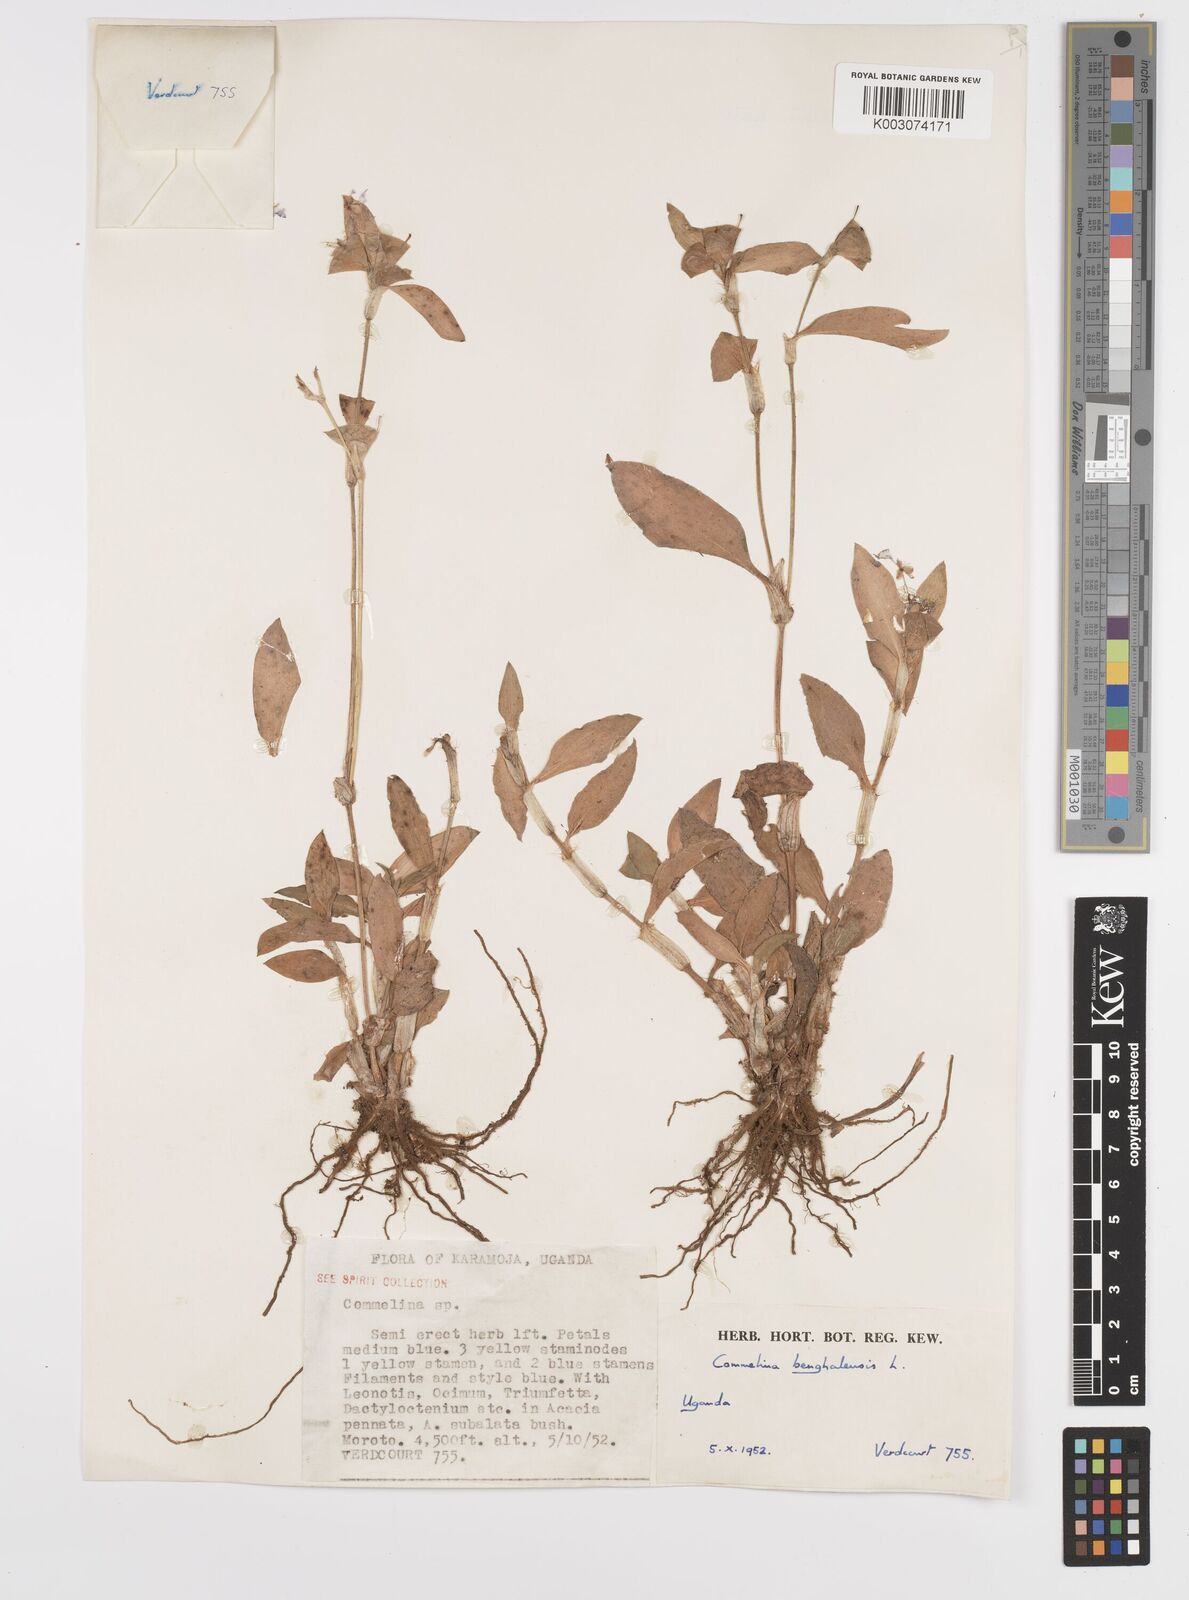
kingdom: Plantae
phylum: Tracheophyta
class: Liliopsida
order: Commelinales
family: Commelinaceae
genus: Commelina
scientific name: Commelina benghalensis
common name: Jio
